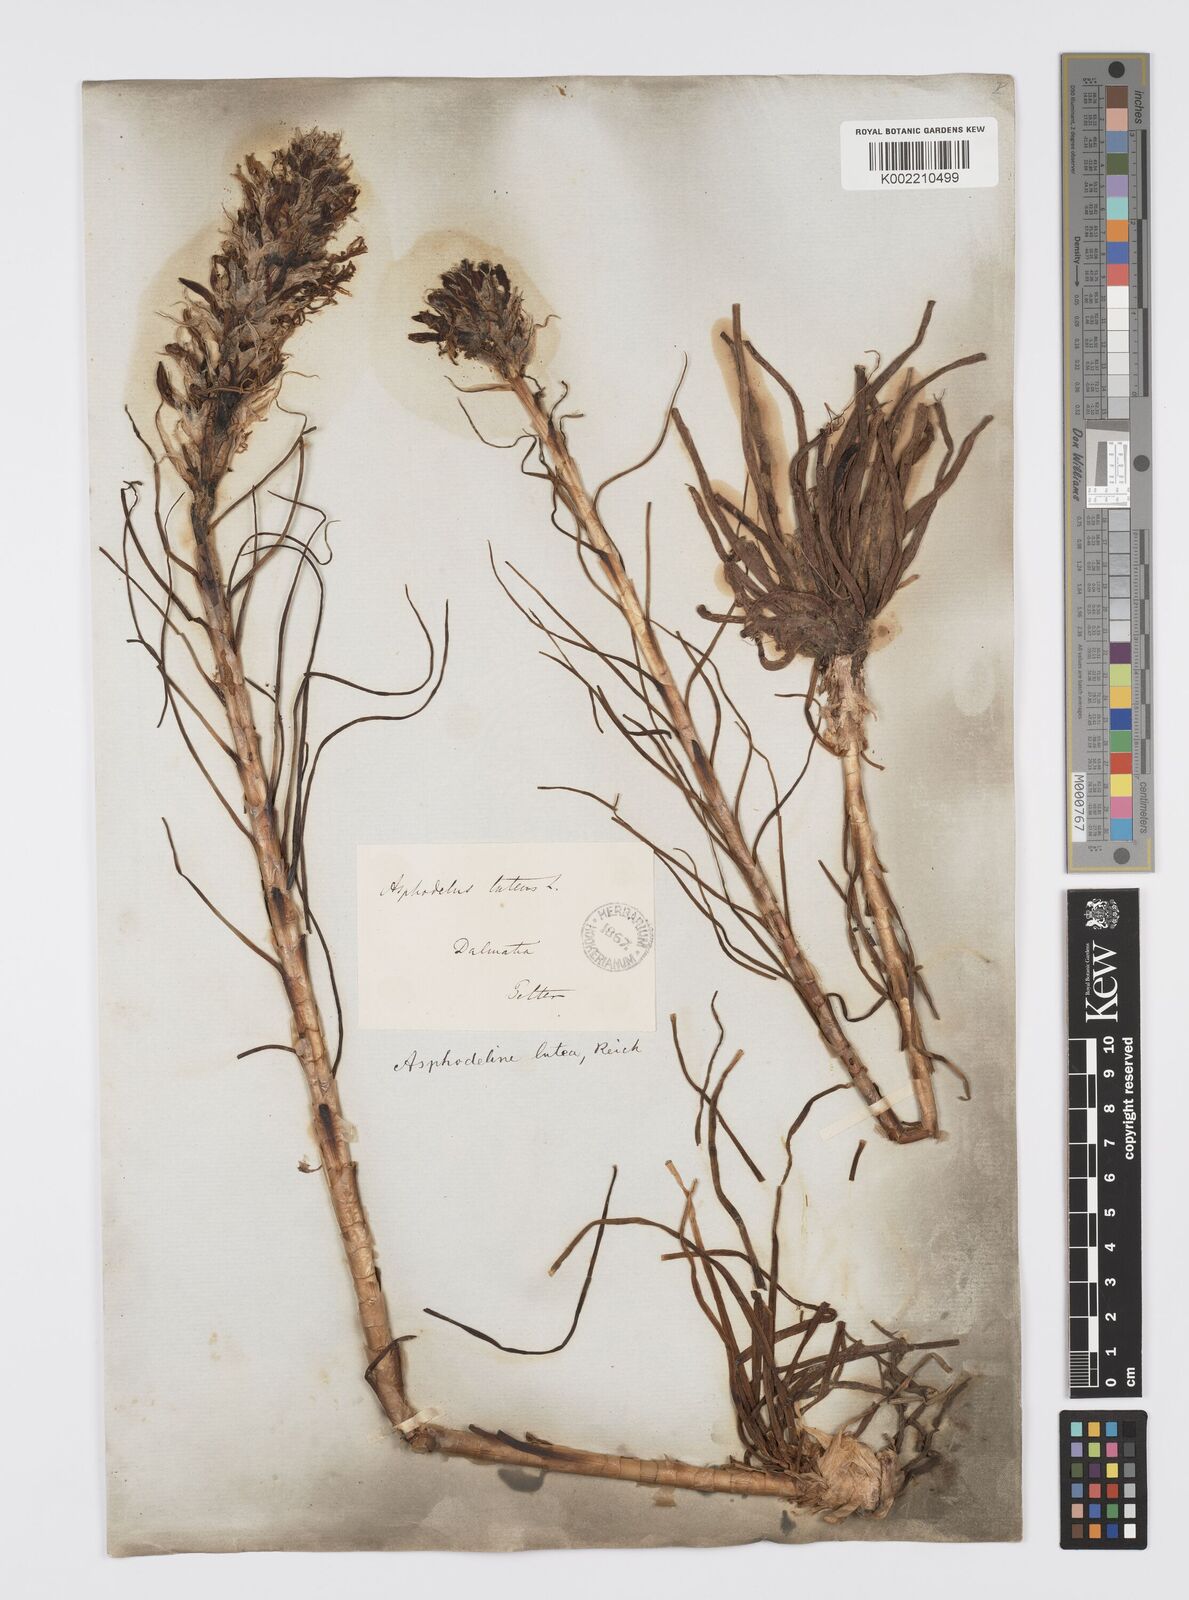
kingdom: Plantae
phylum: Tracheophyta
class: Liliopsida
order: Asparagales
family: Asphodelaceae
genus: Asphodeline
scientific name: Asphodeline lutea
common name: Yellow asphodel
